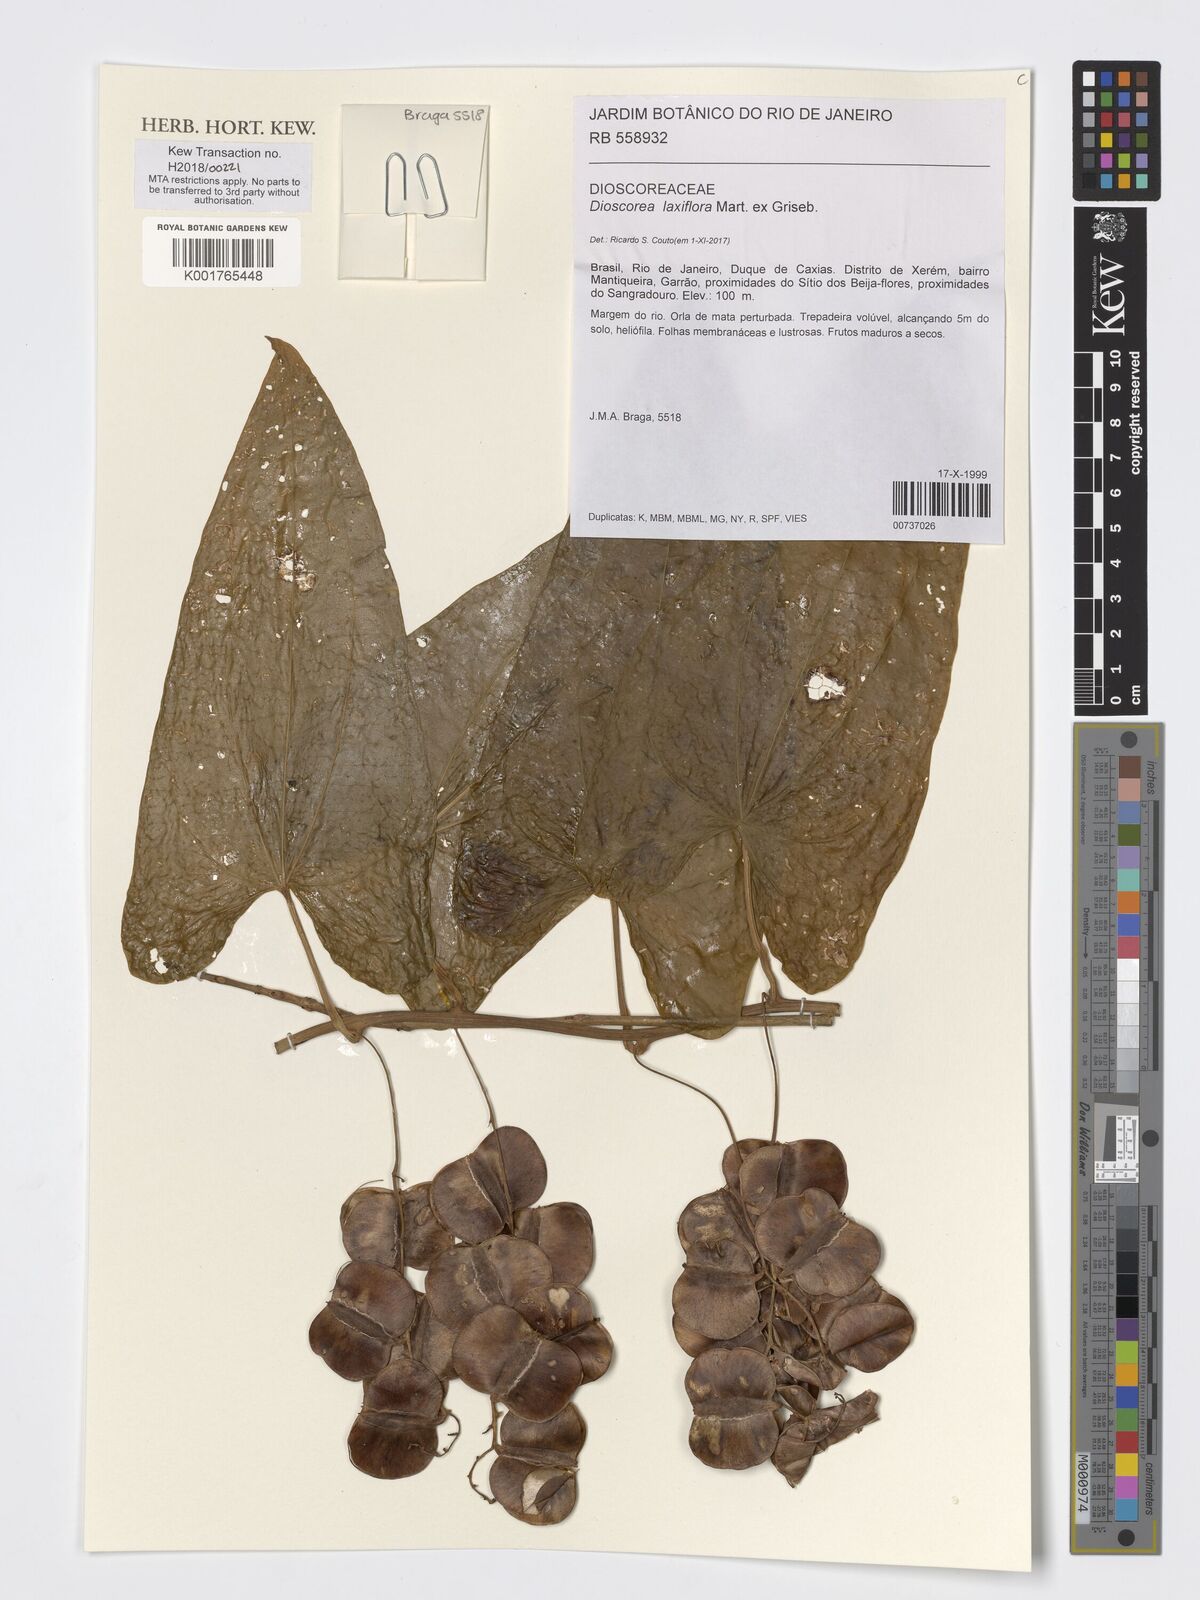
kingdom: Plantae
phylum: Tracheophyta
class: Liliopsida
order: Dioscoreales
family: Dioscoreaceae
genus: Dioscorea
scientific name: Dioscorea laxiflora
